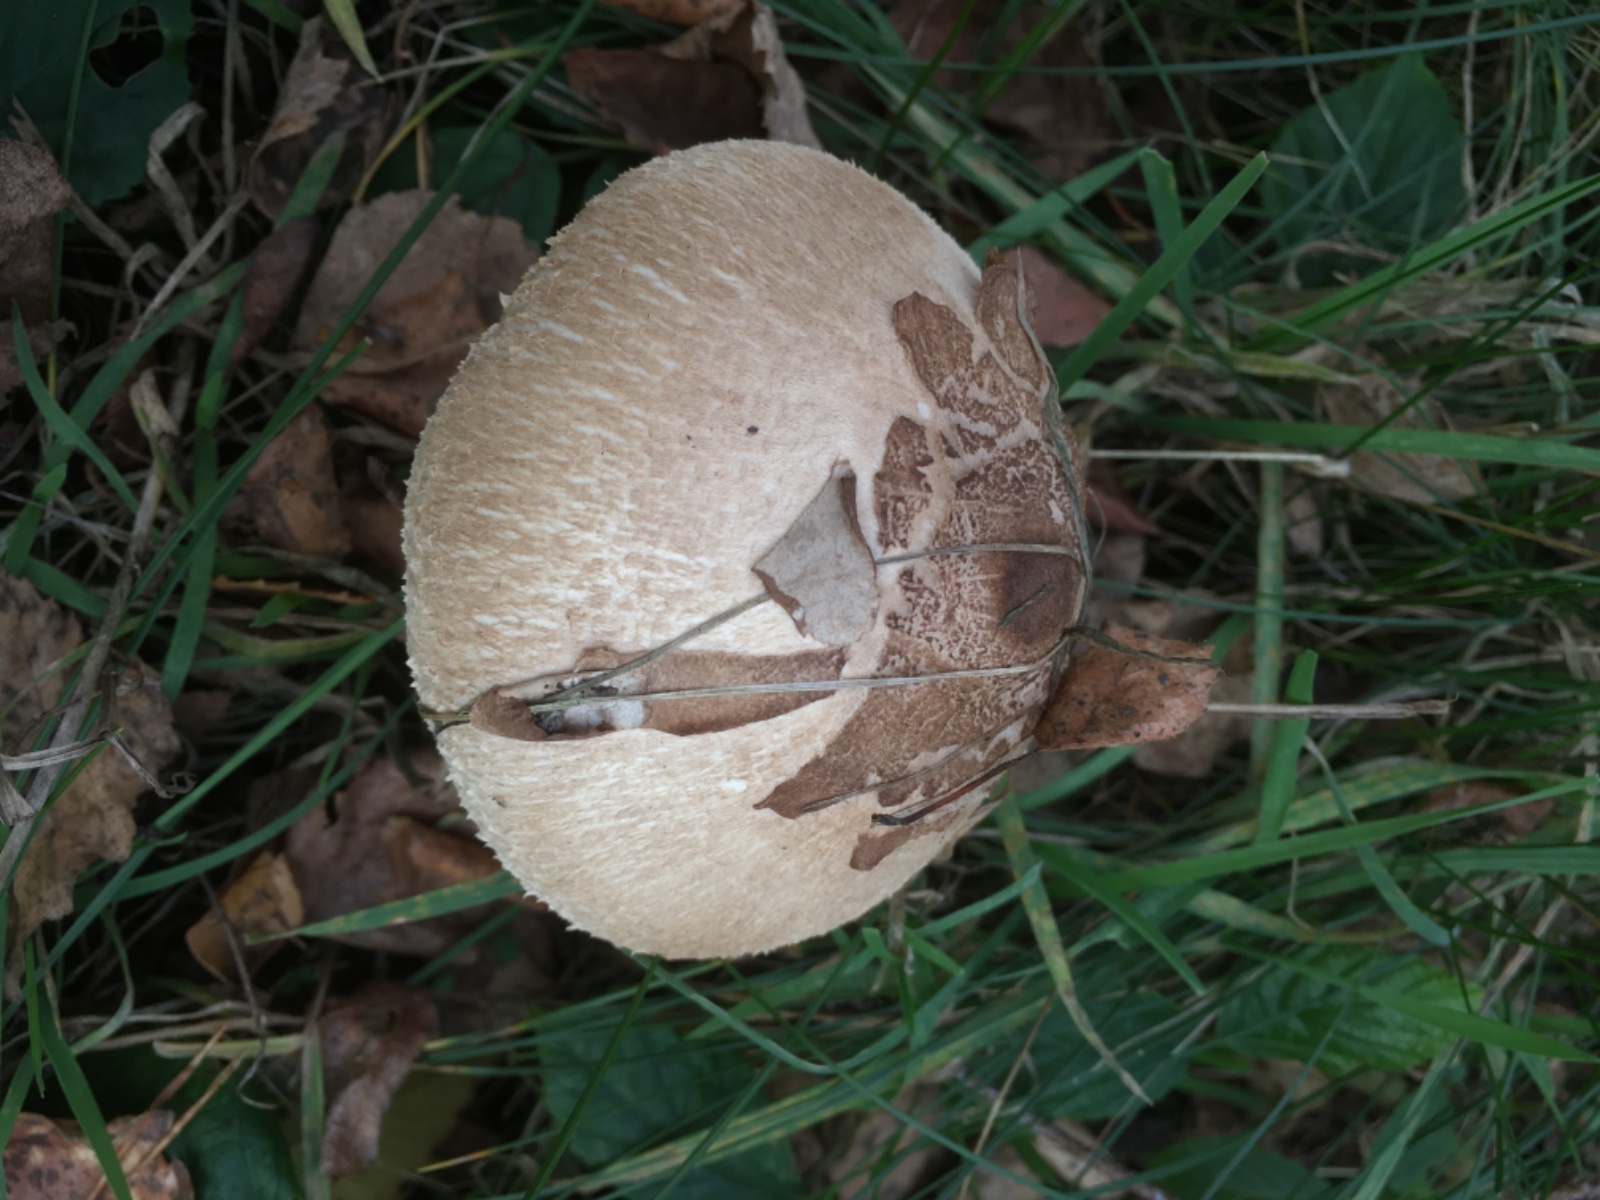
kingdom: Fungi
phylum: Basidiomycota
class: Agaricomycetes
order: Agaricales
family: Agaricaceae
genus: Macrolepiota
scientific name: Macrolepiota mastoidea
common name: puklet kæmpeparasolhat
